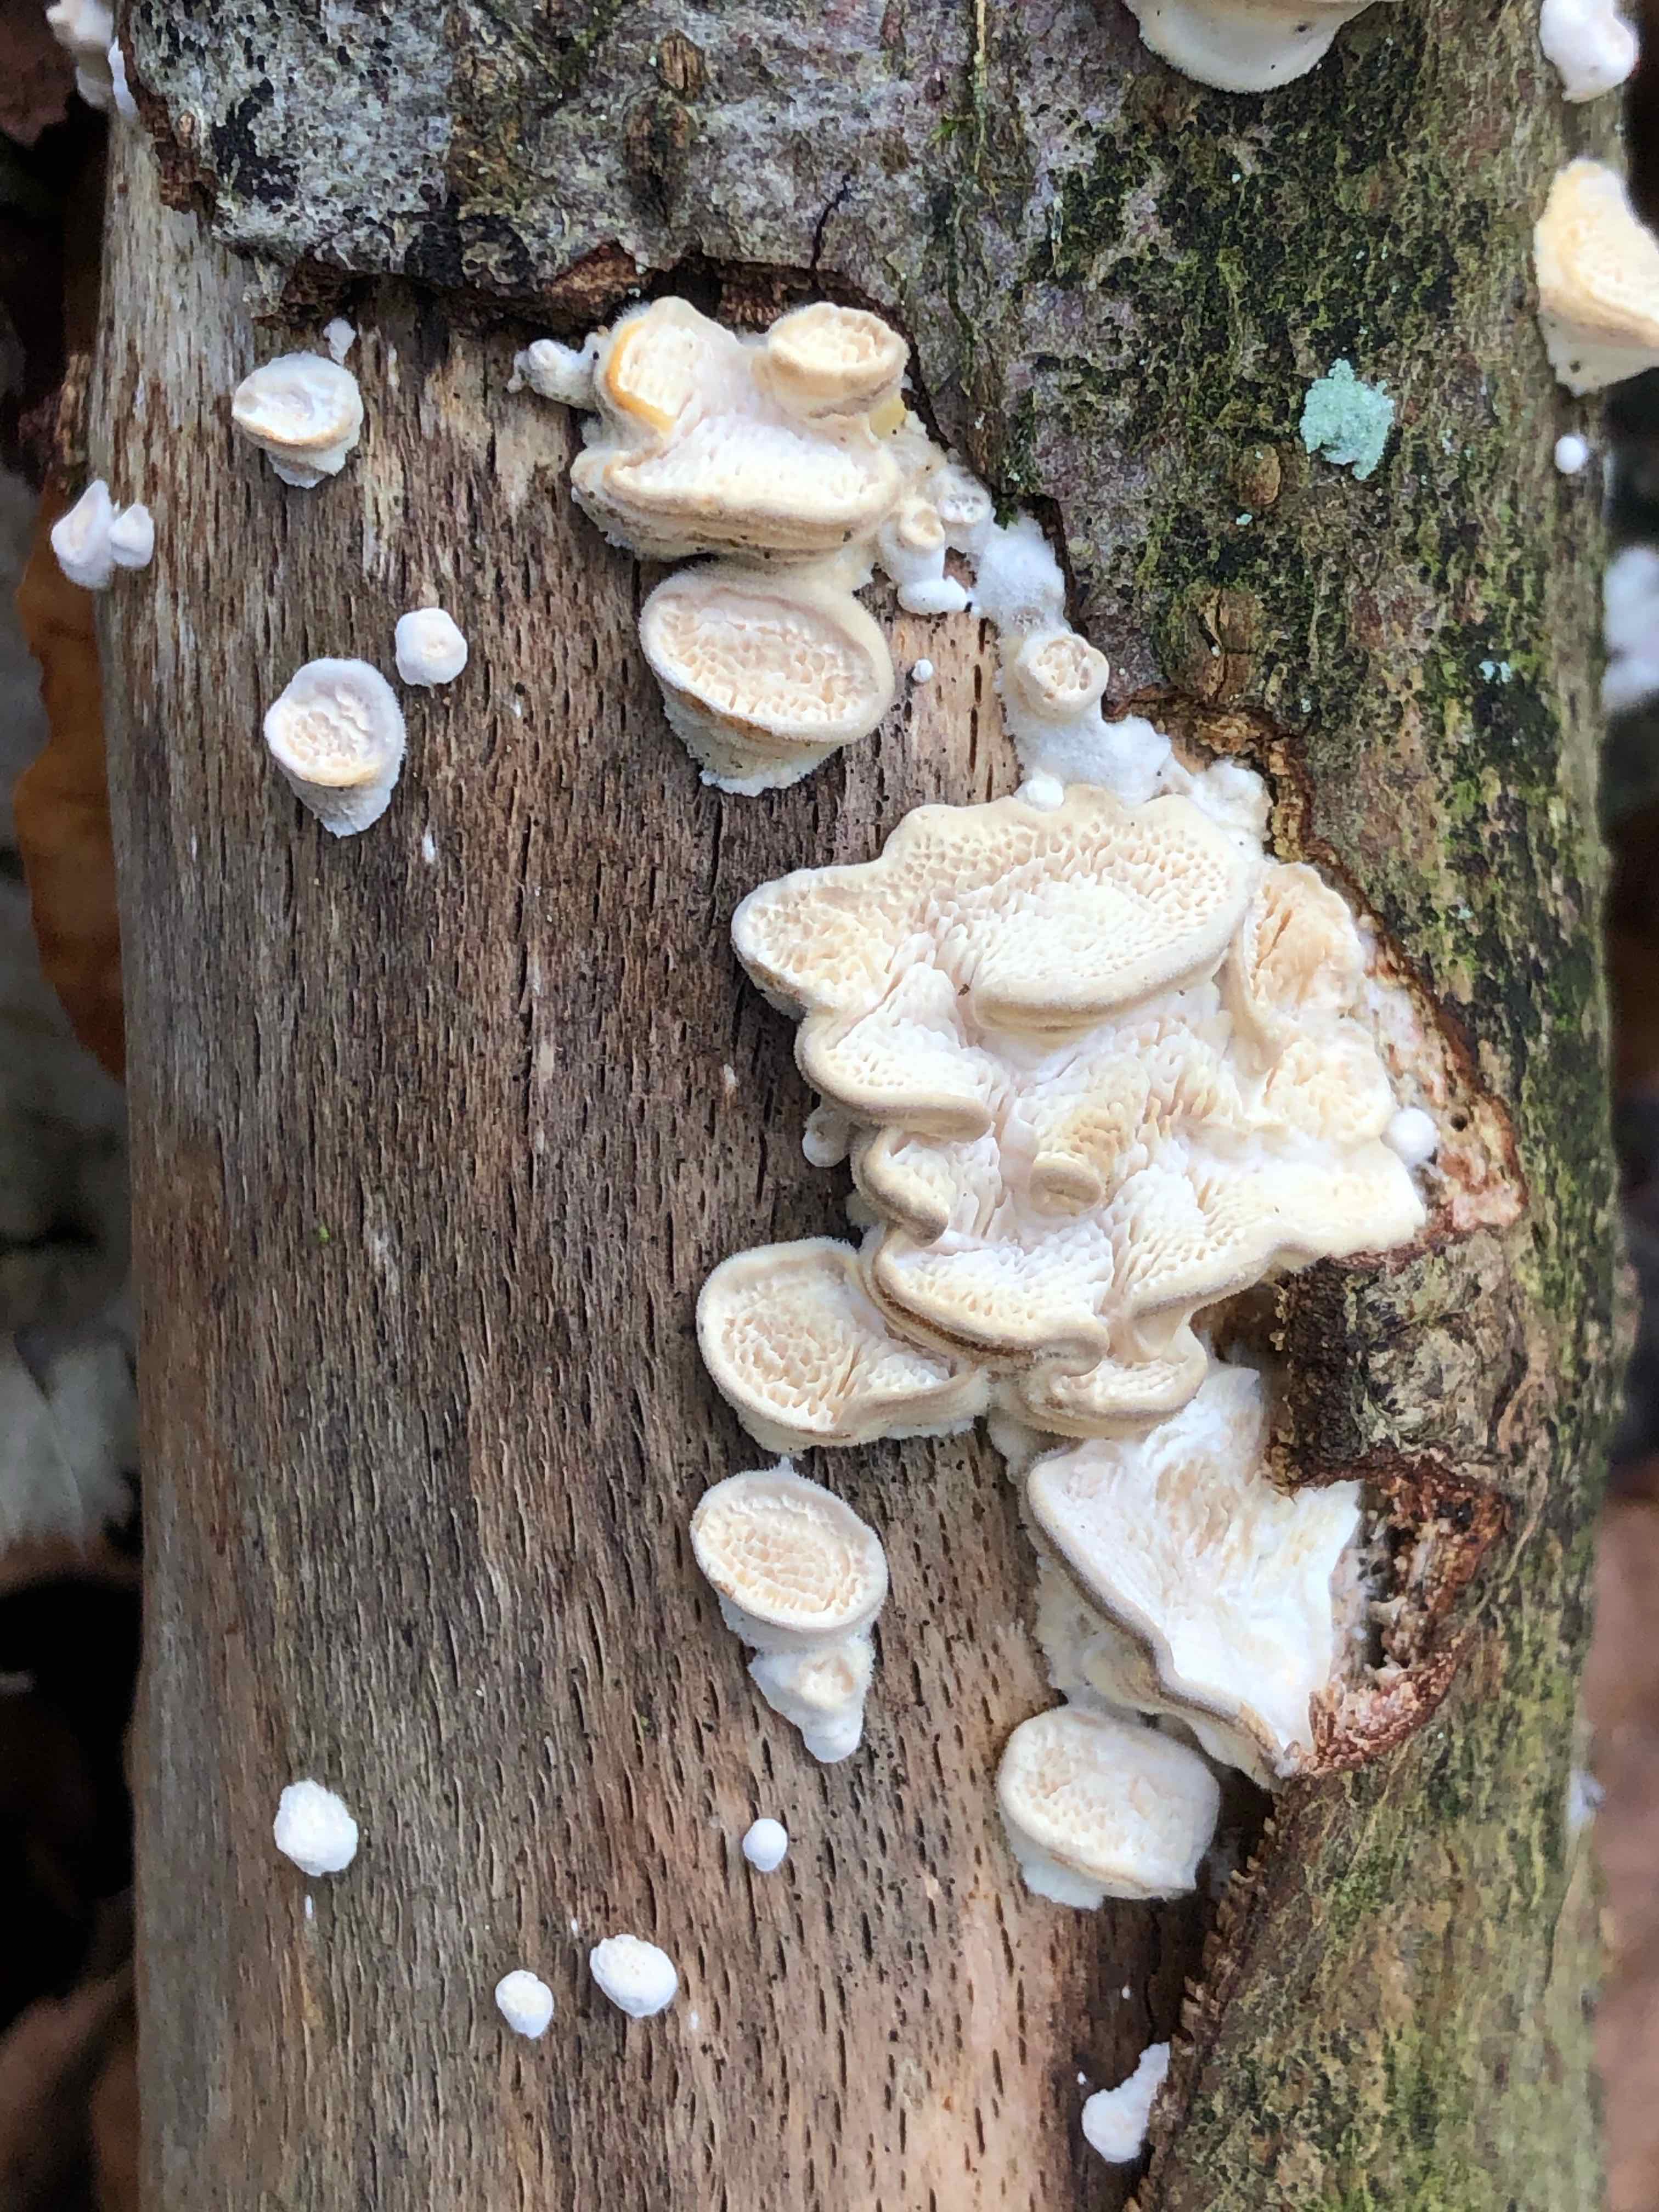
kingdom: Fungi
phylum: Basidiomycota
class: Agaricomycetes
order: Polyporales
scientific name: Polyporales
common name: poresvampordenen
